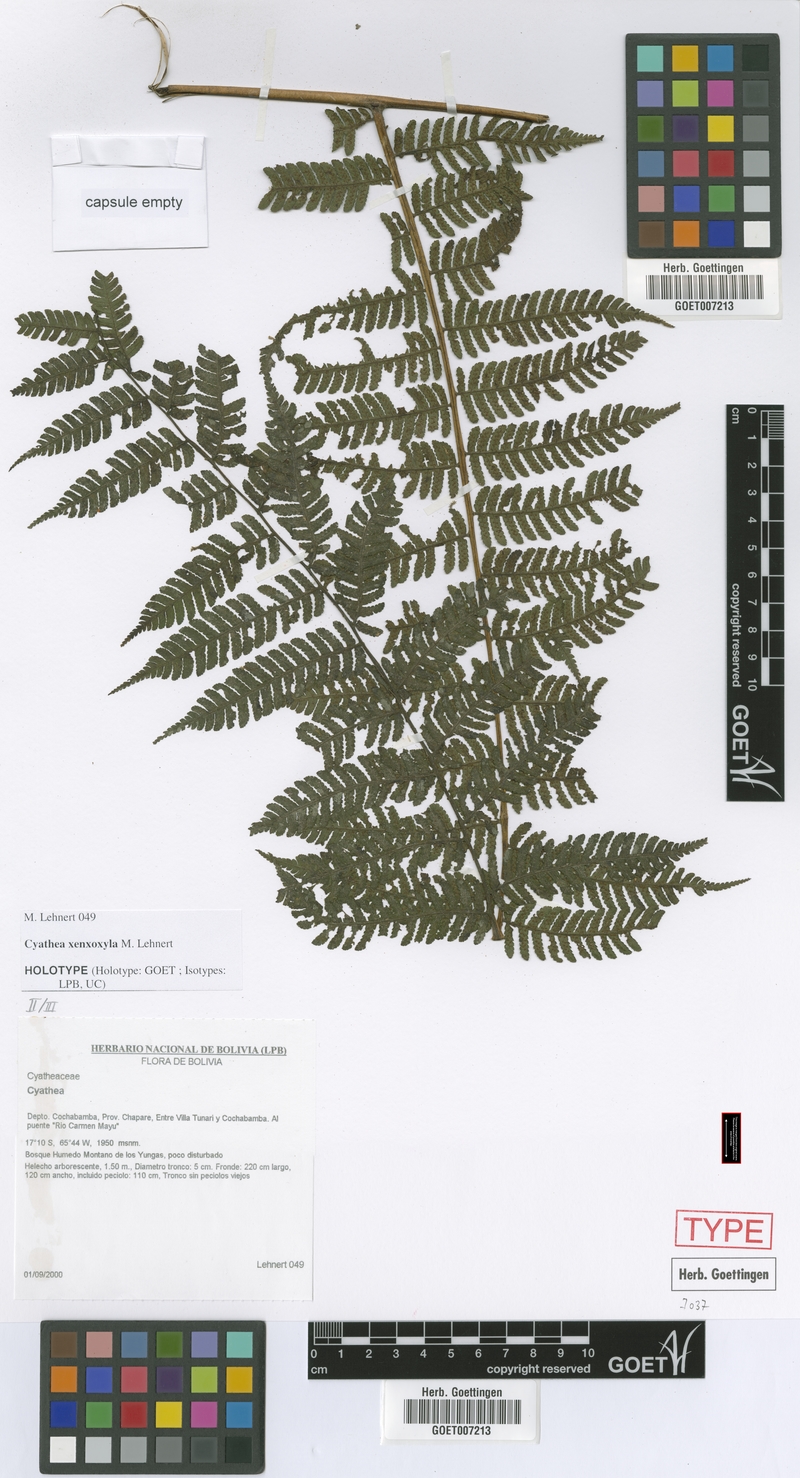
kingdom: Plantae
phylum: Tracheophyta
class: Polypodiopsida
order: Cyatheales
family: Cyatheaceae
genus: Cyathea
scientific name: Cyathea planadae
